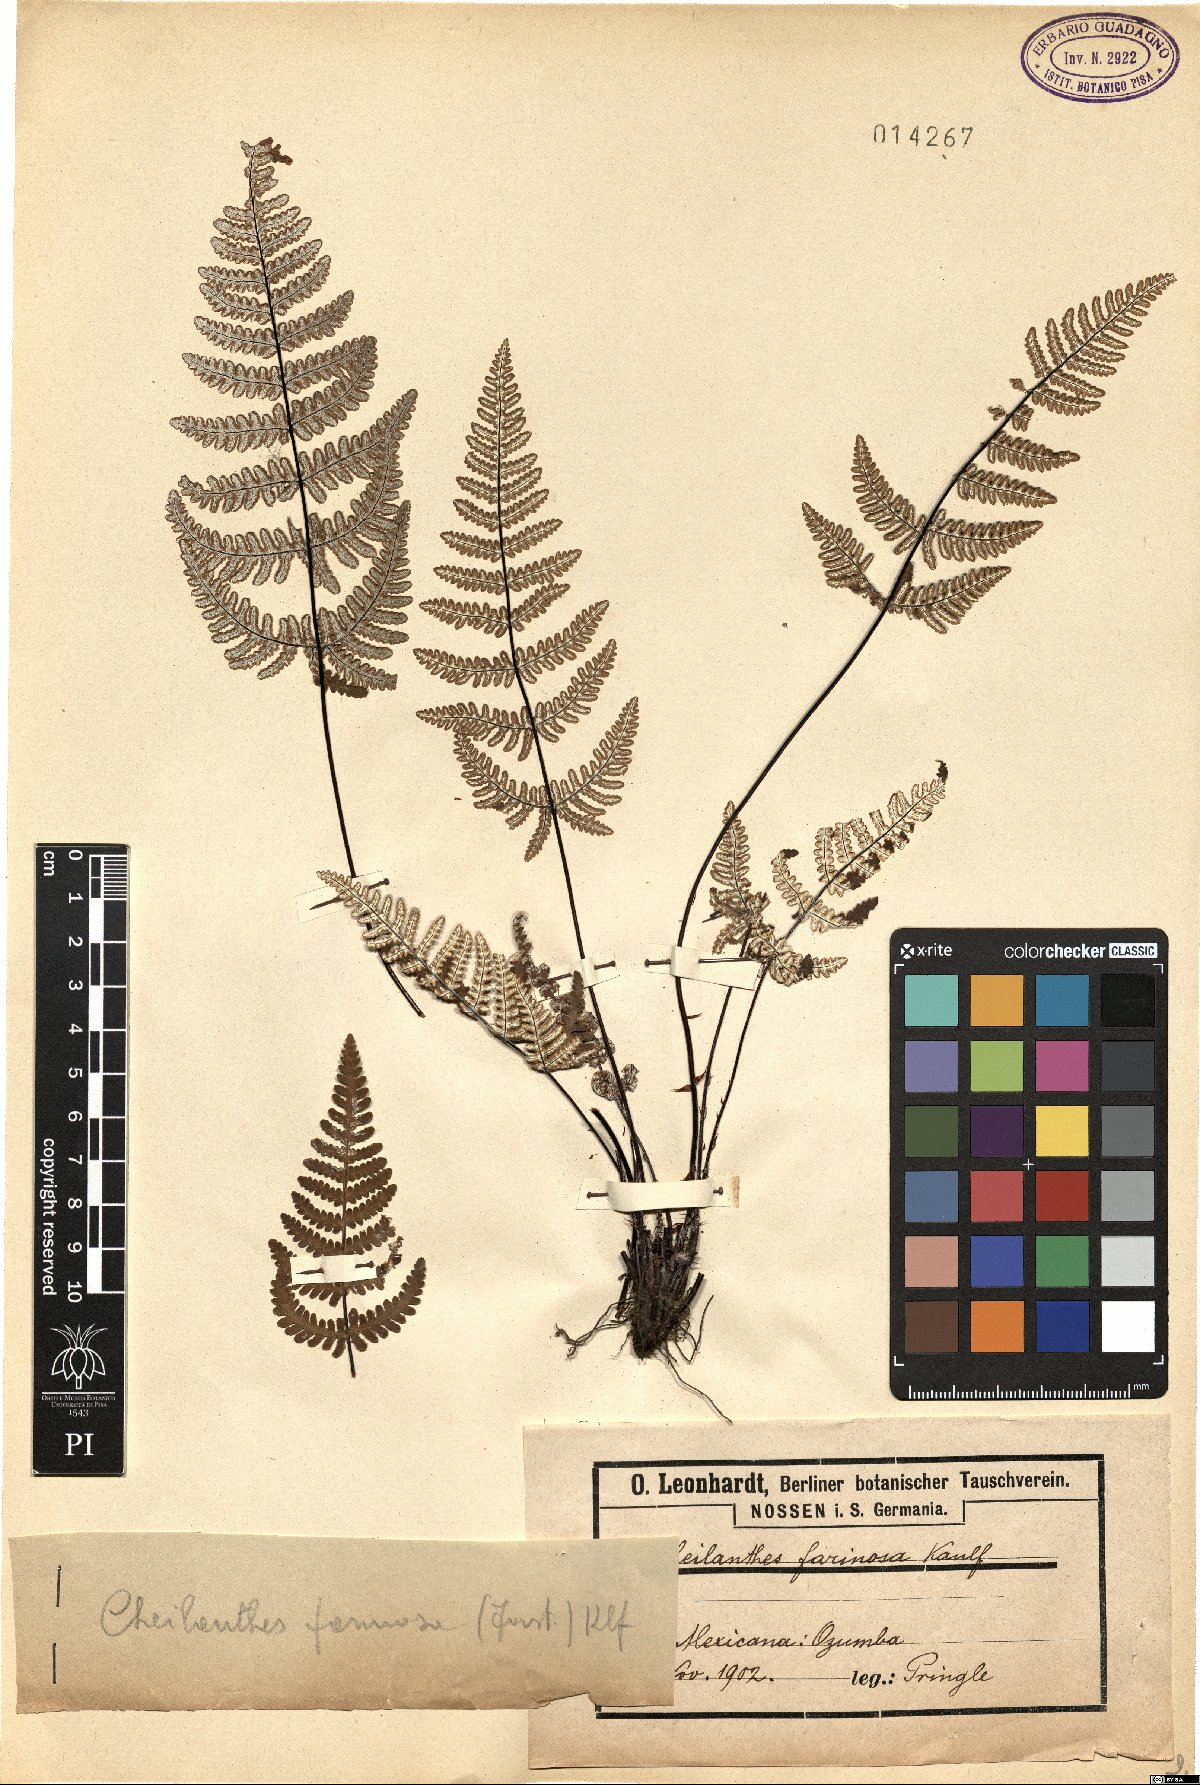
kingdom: Plantae
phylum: Tracheophyta
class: Polypodiopsida
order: Polypodiales
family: Pteridaceae
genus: Aleuritopteris
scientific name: Aleuritopteris farinosa
